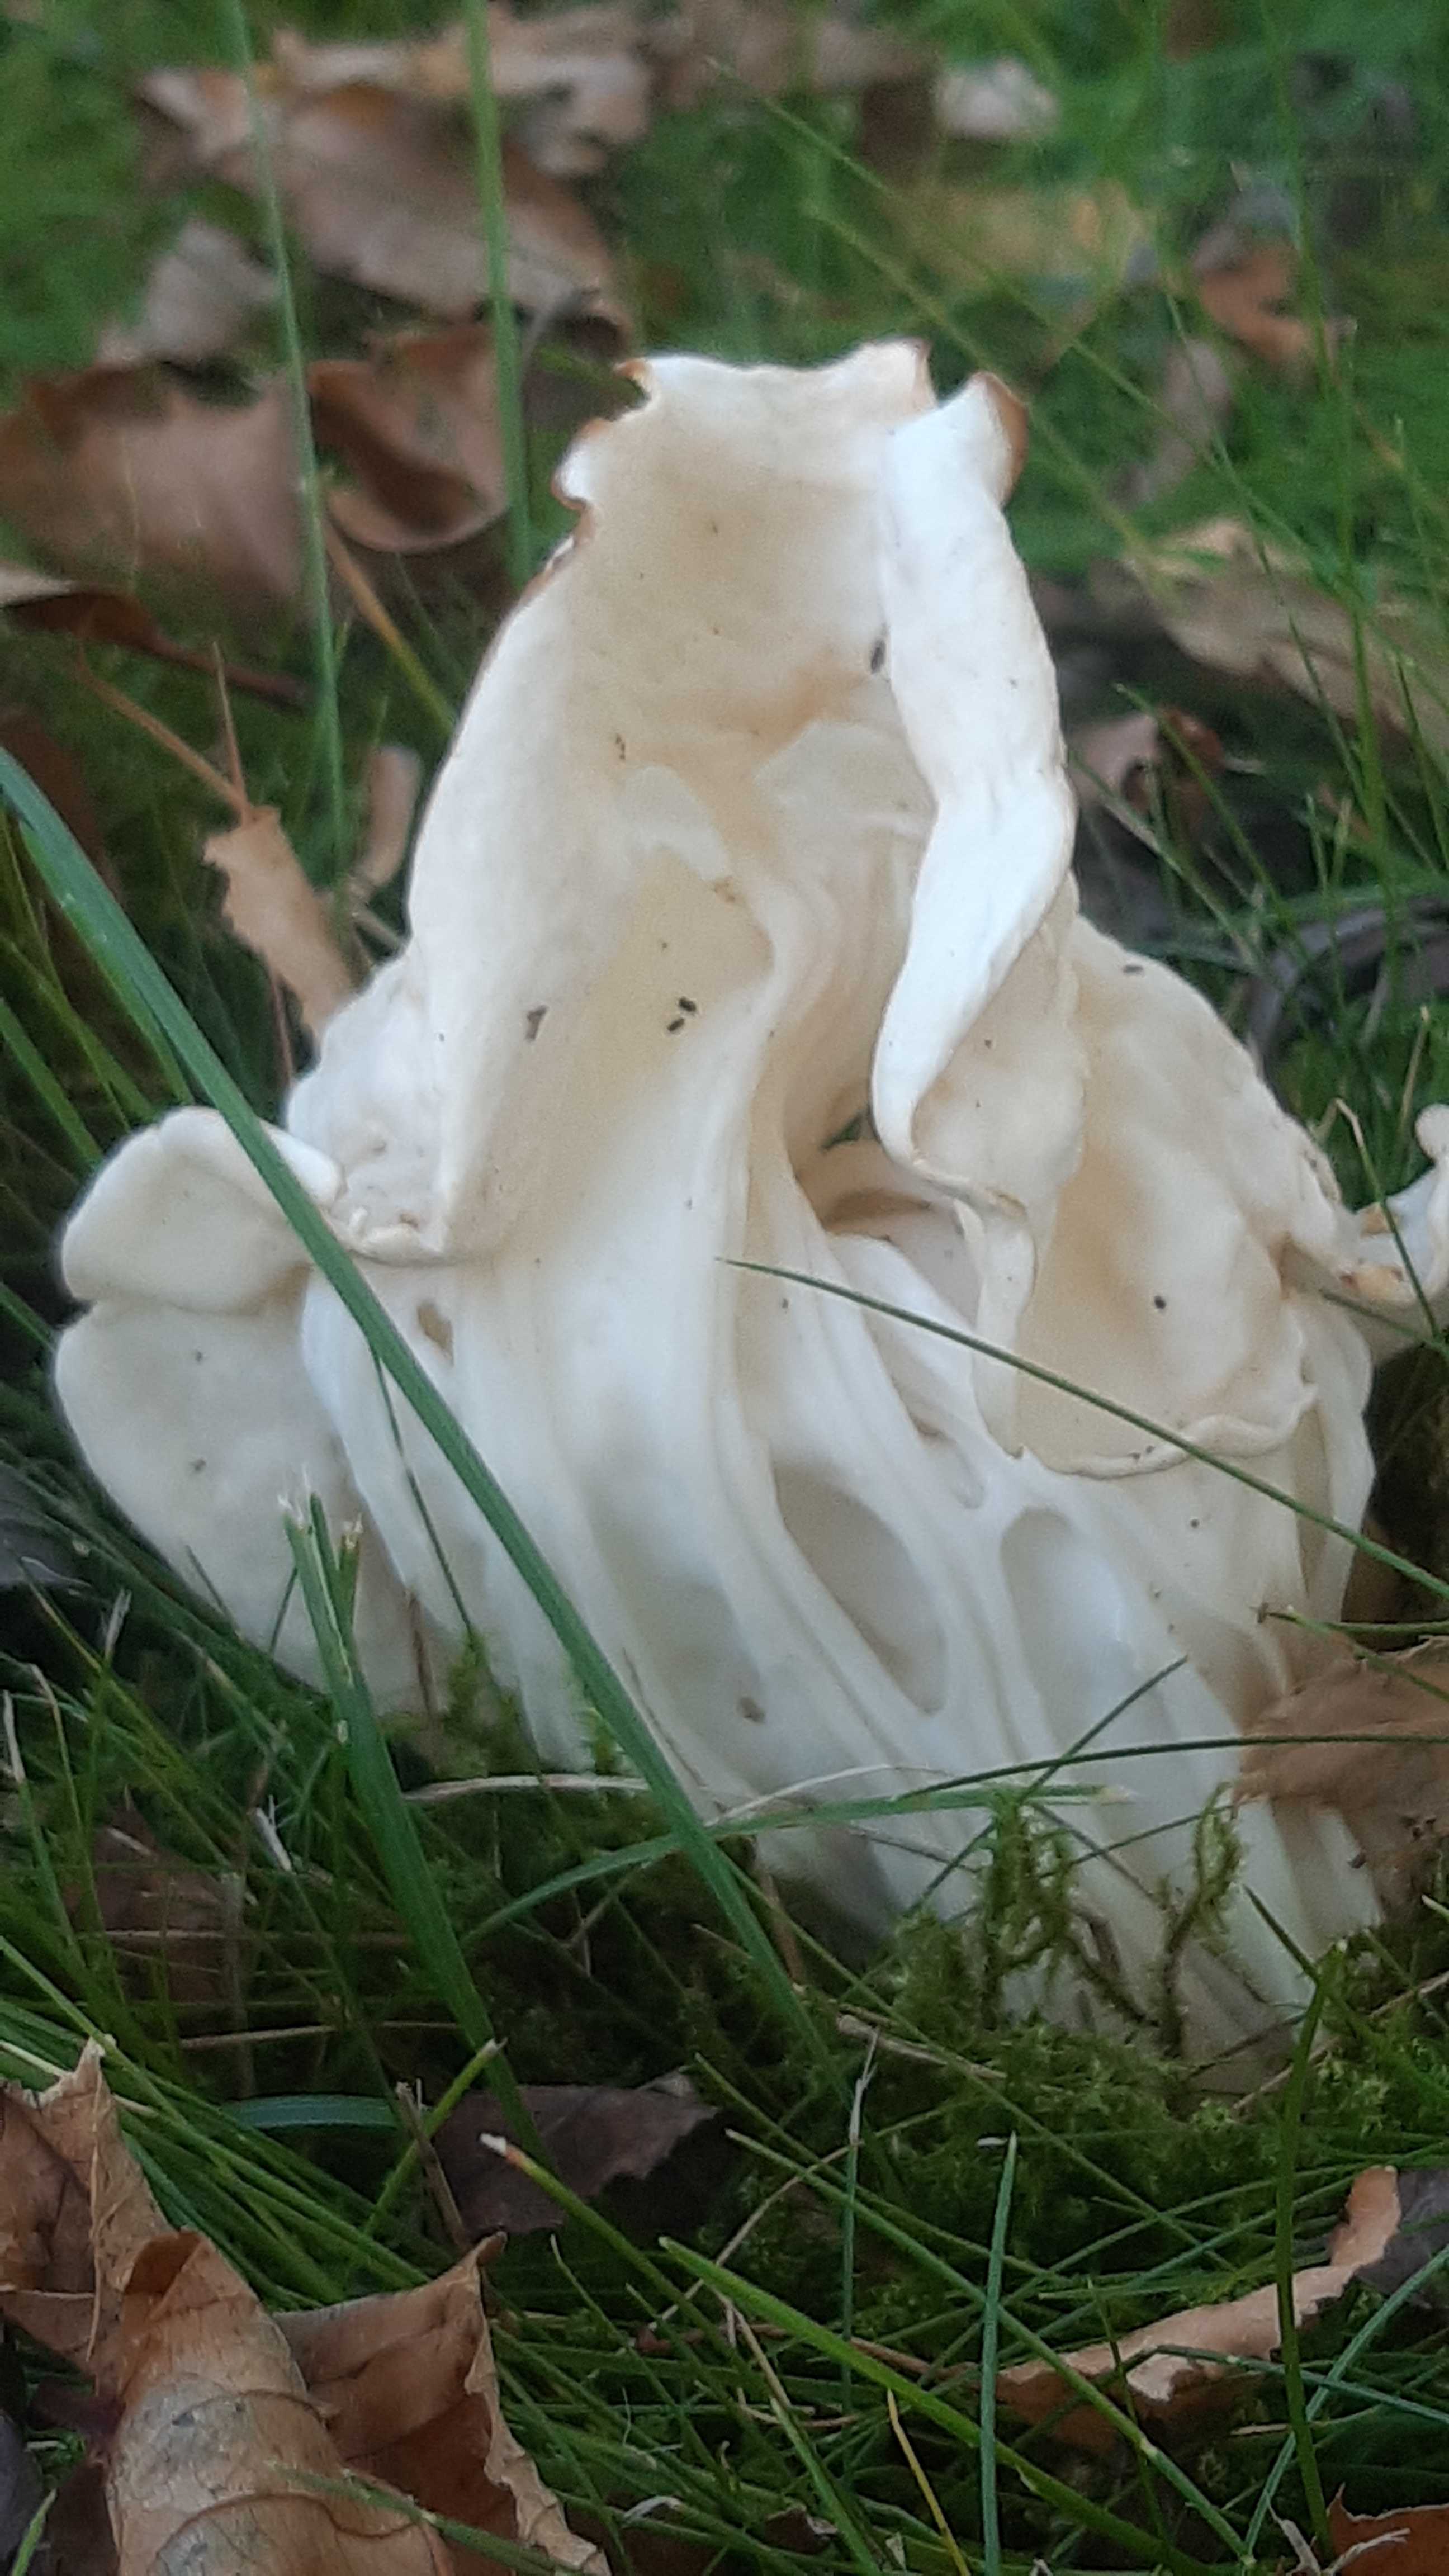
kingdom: Fungi
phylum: Ascomycota
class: Pezizomycetes
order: Pezizales
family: Helvellaceae
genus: Helvella
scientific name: Helvella crispa
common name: kruset foldhat
